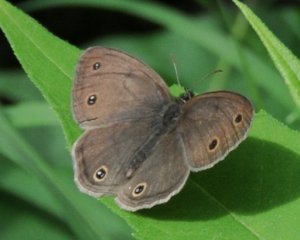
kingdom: Animalia
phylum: Arthropoda
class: Insecta
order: Lepidoptera
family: Nymphalidae
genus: Euptychia
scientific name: Euptychia cymela
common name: Little Wood Satyr
